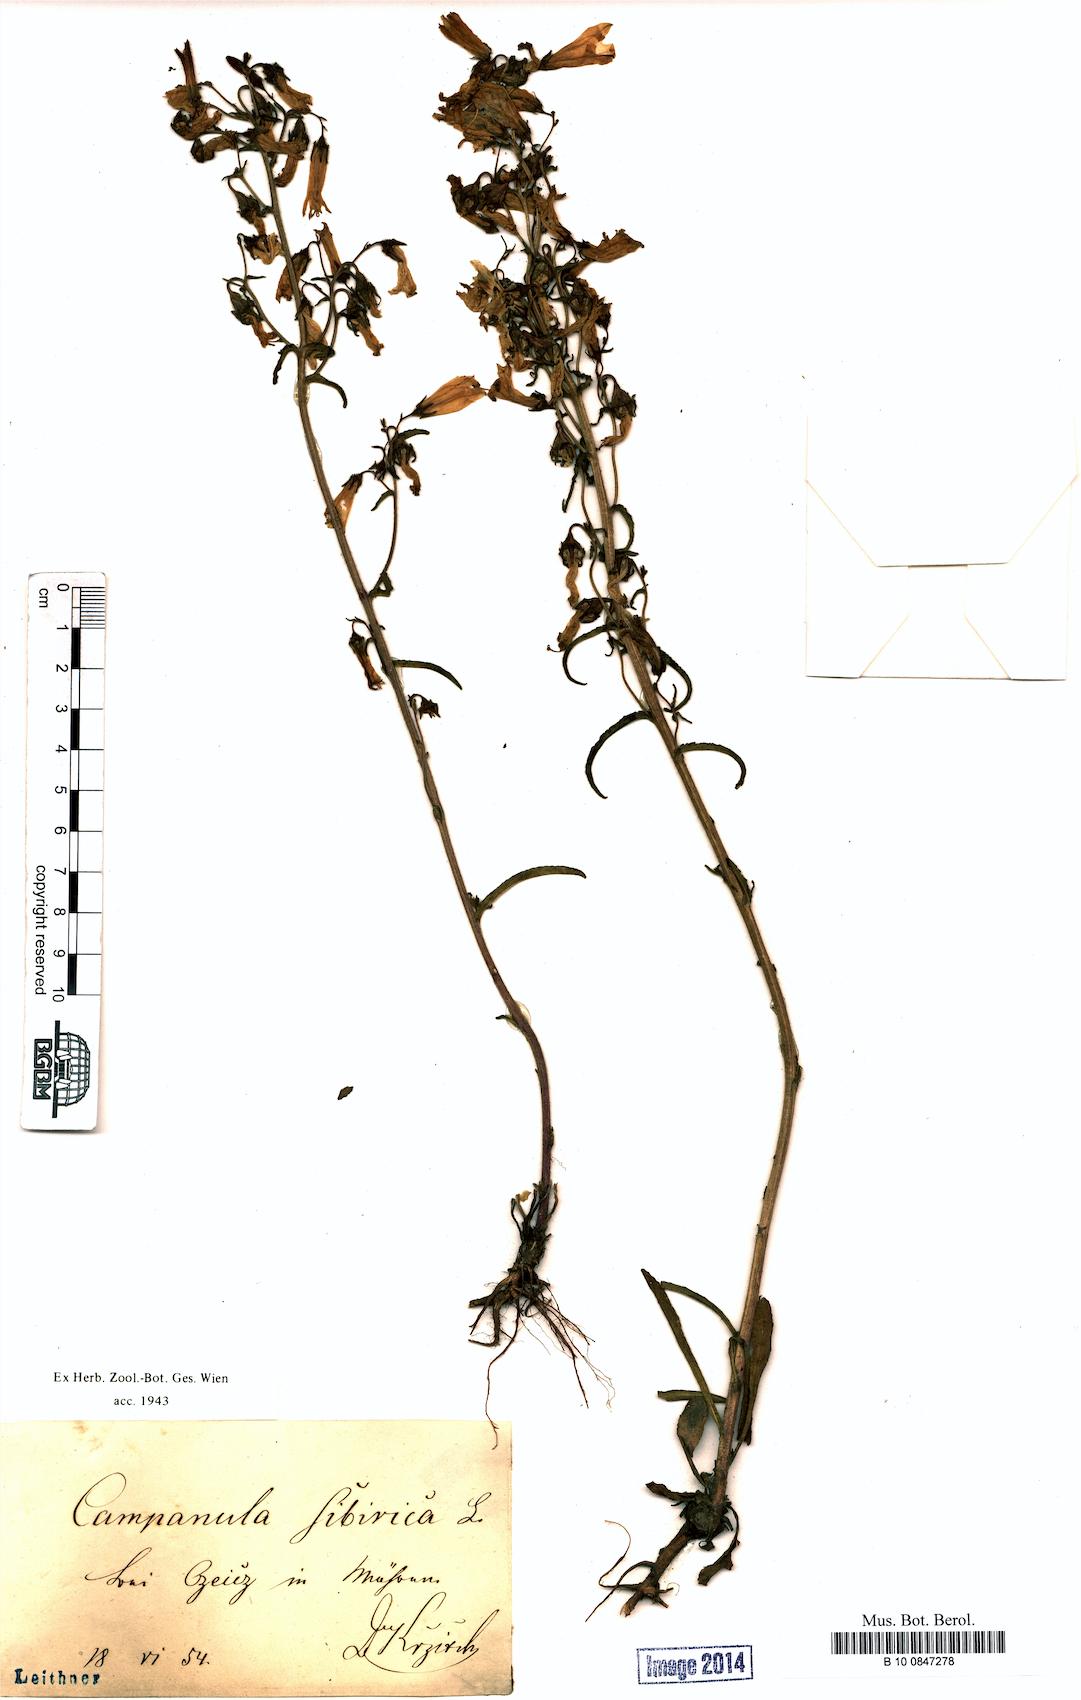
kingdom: Plantae
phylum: Tracheophyta
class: Magnoliopsida
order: Asterales
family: Campanulaceae
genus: Campanula
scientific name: Campanula sibirica
